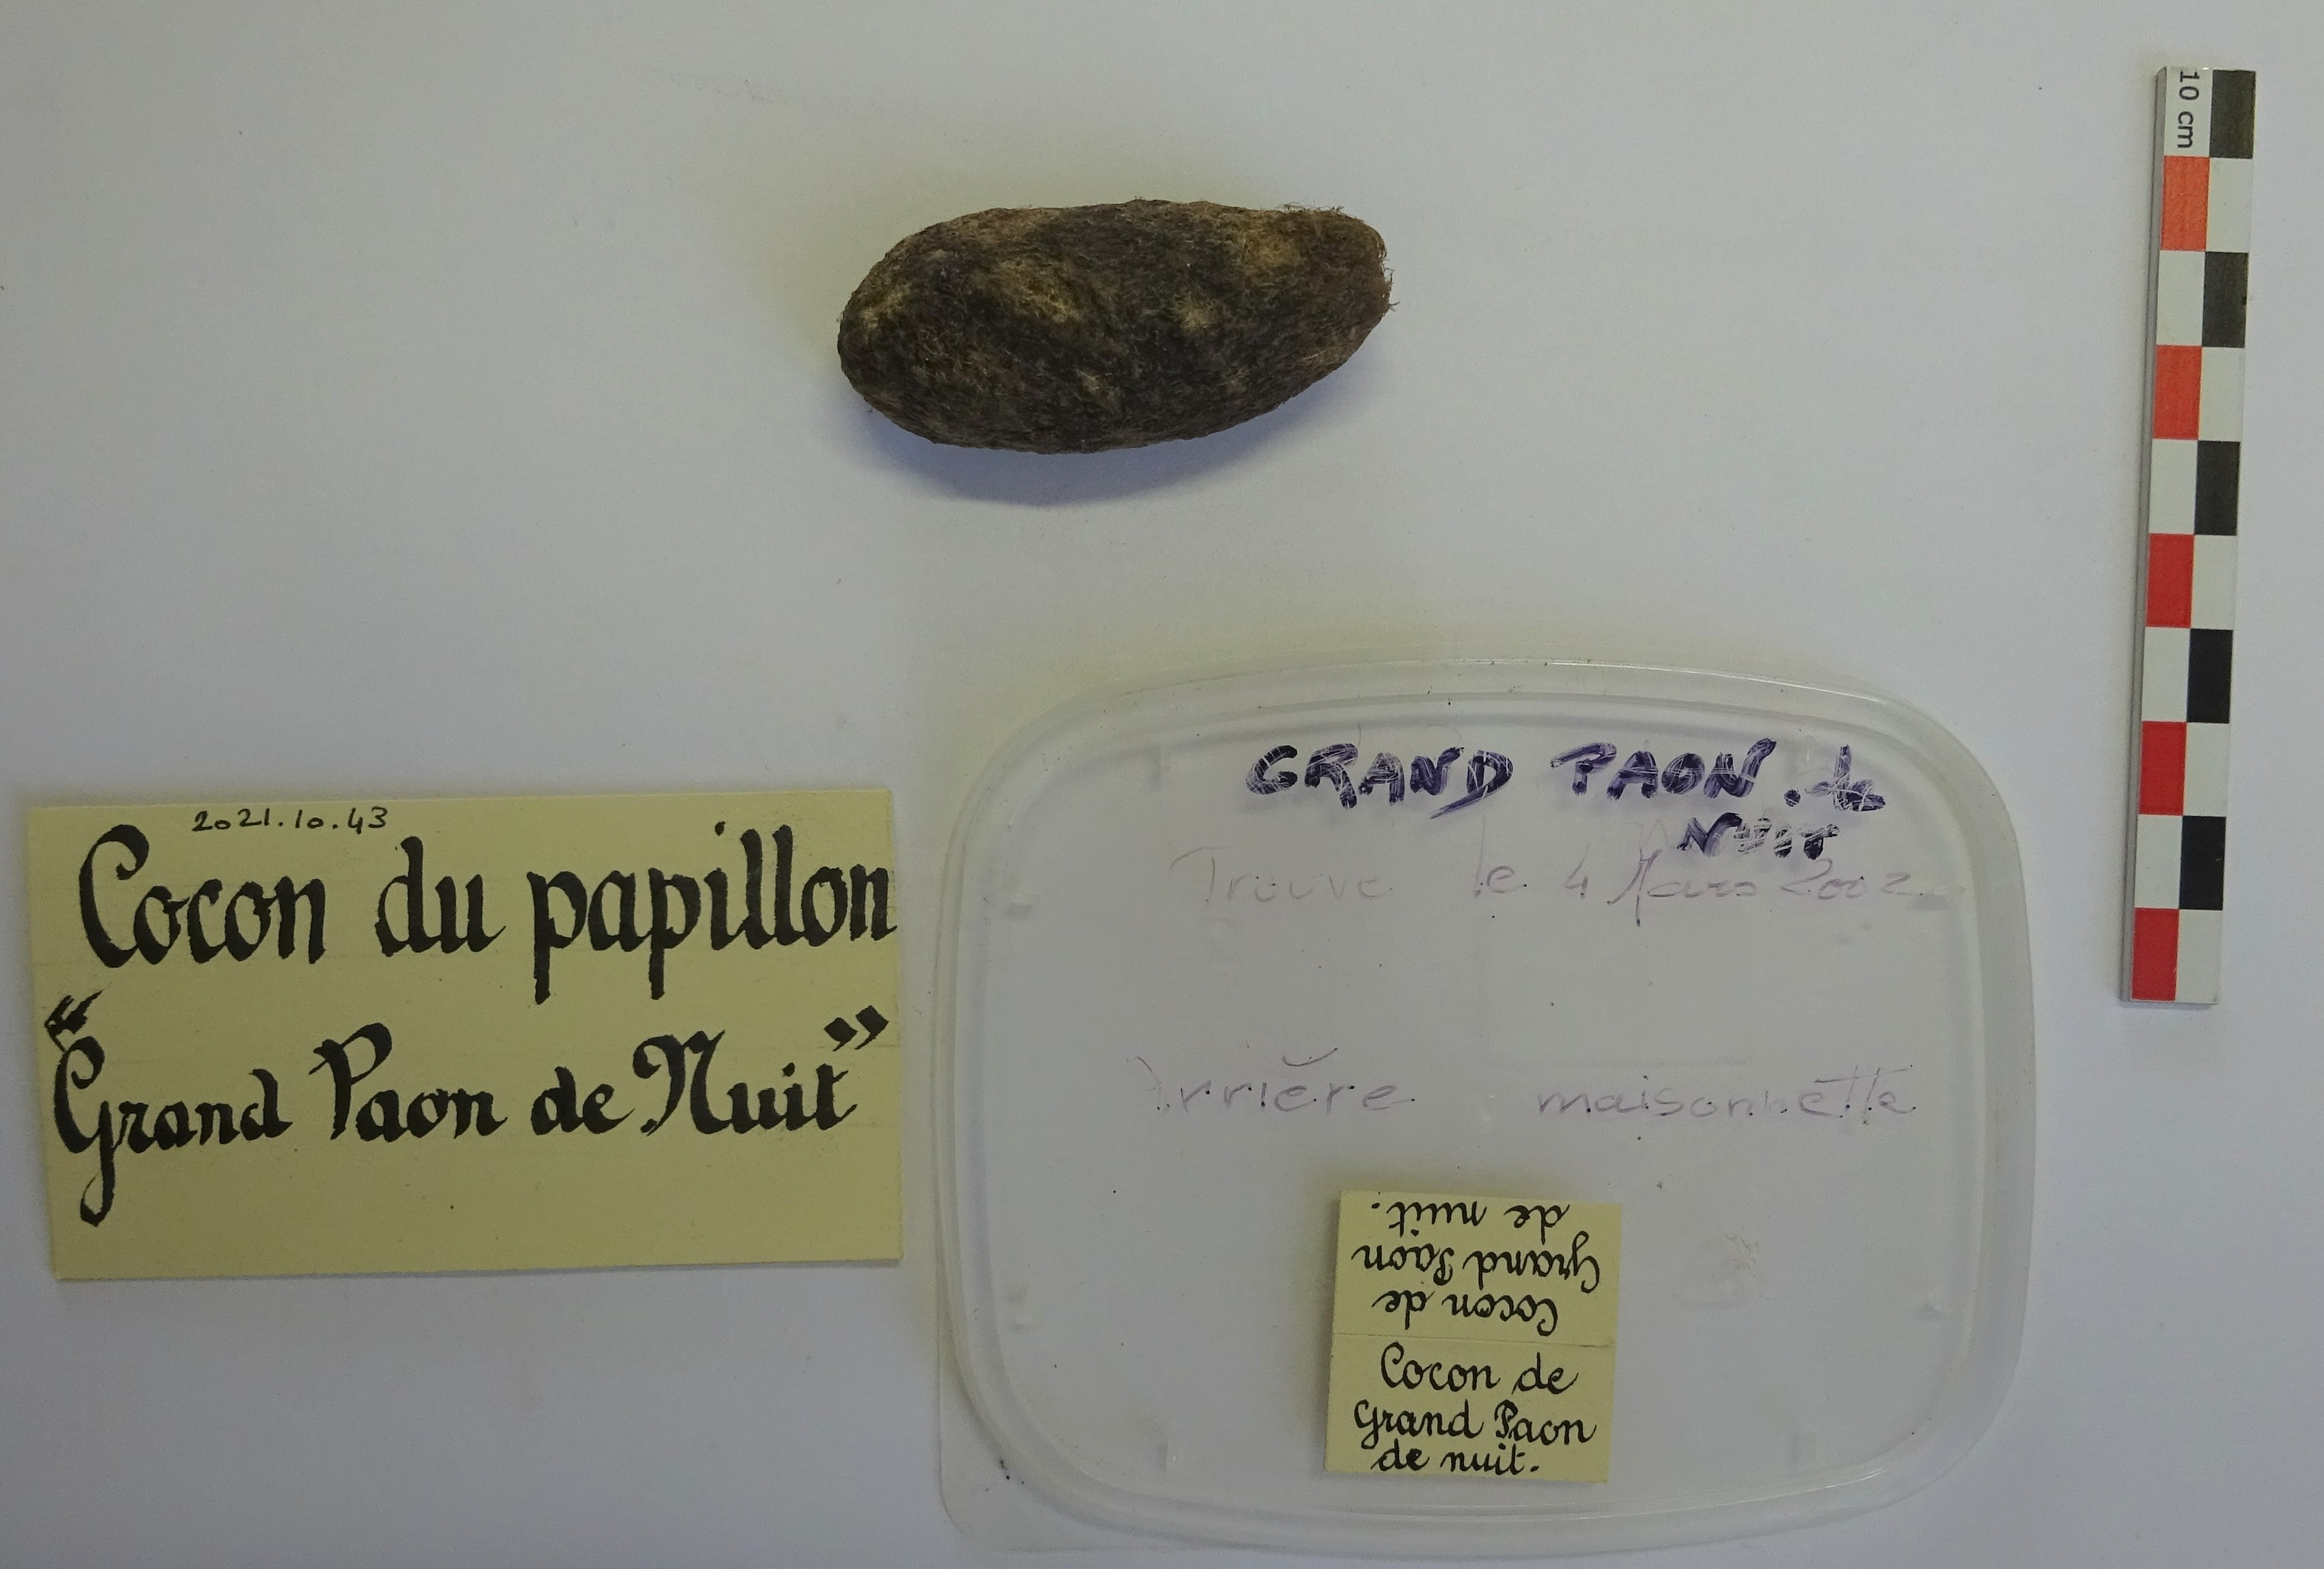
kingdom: Animalia
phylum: Arthropoda
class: Insecta
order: Lepidoptera
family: Saturniidae
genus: Saturnia
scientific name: Saturnia pyri
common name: Great peacock moth
